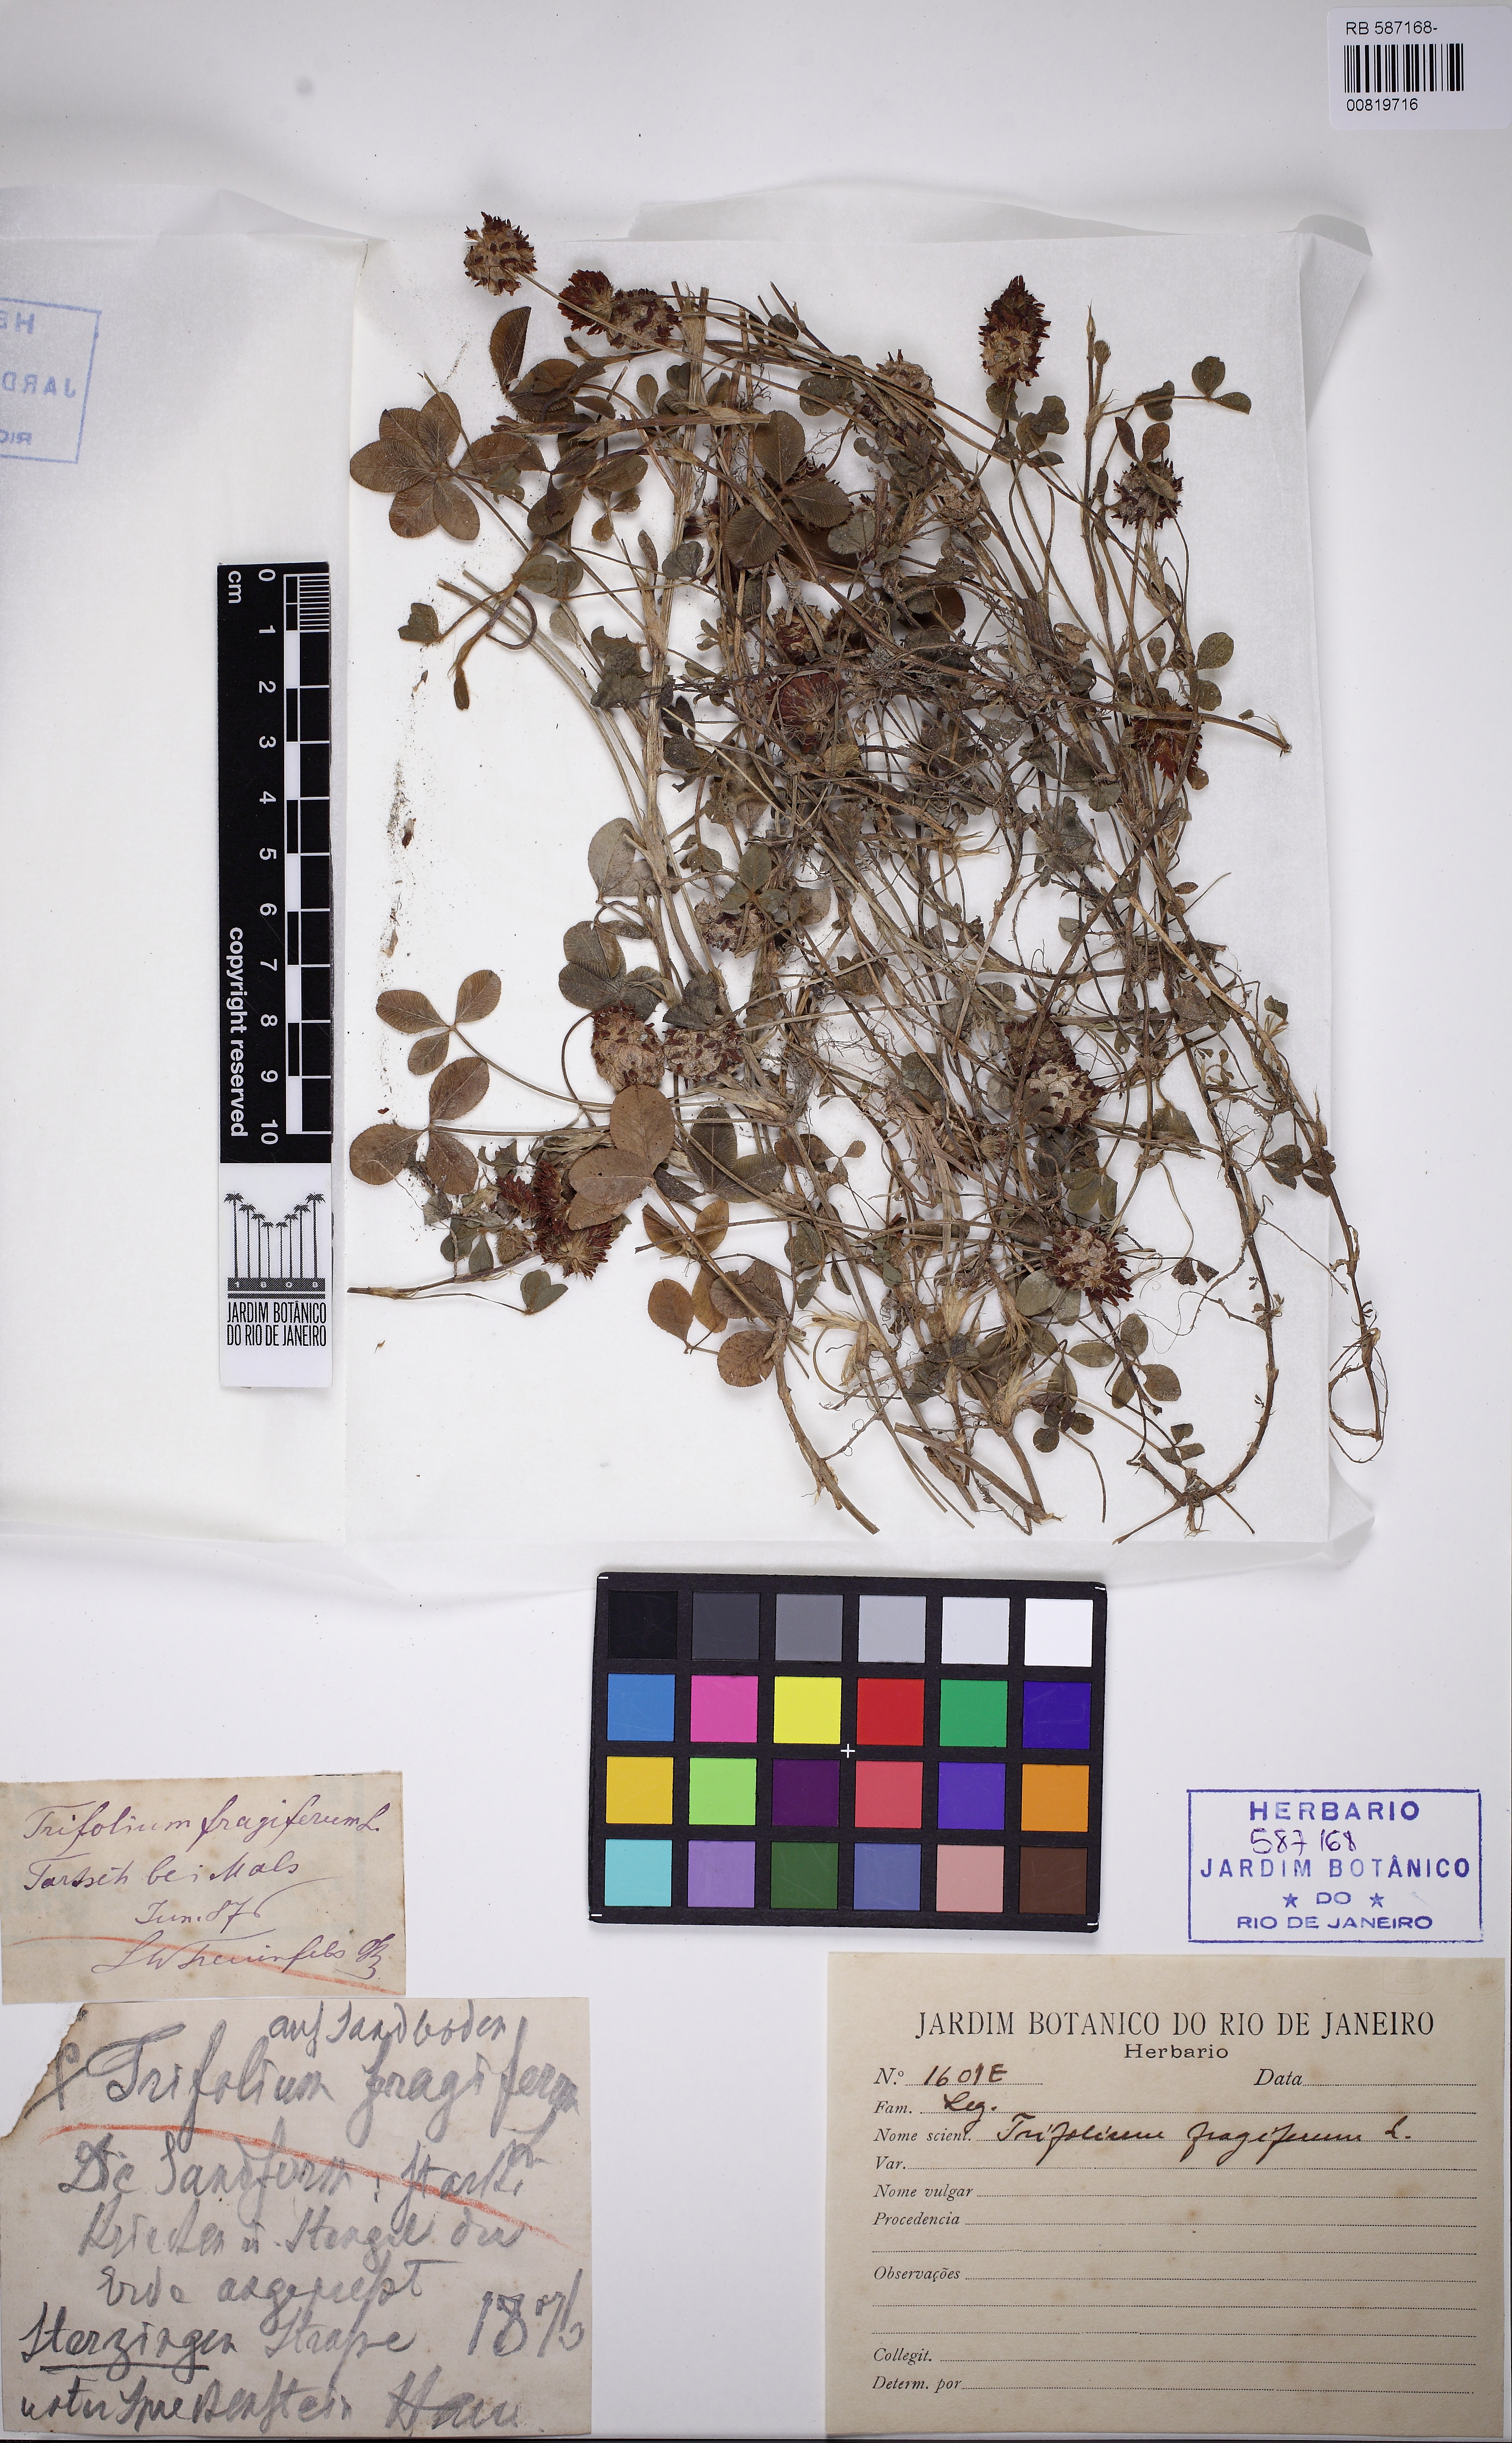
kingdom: Plantae
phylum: Tracheophyta
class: Magnoliopsida
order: Fabales
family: Fabaceae
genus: Trifolium
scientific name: Trifolium fragiferum
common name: Strawberry clover
